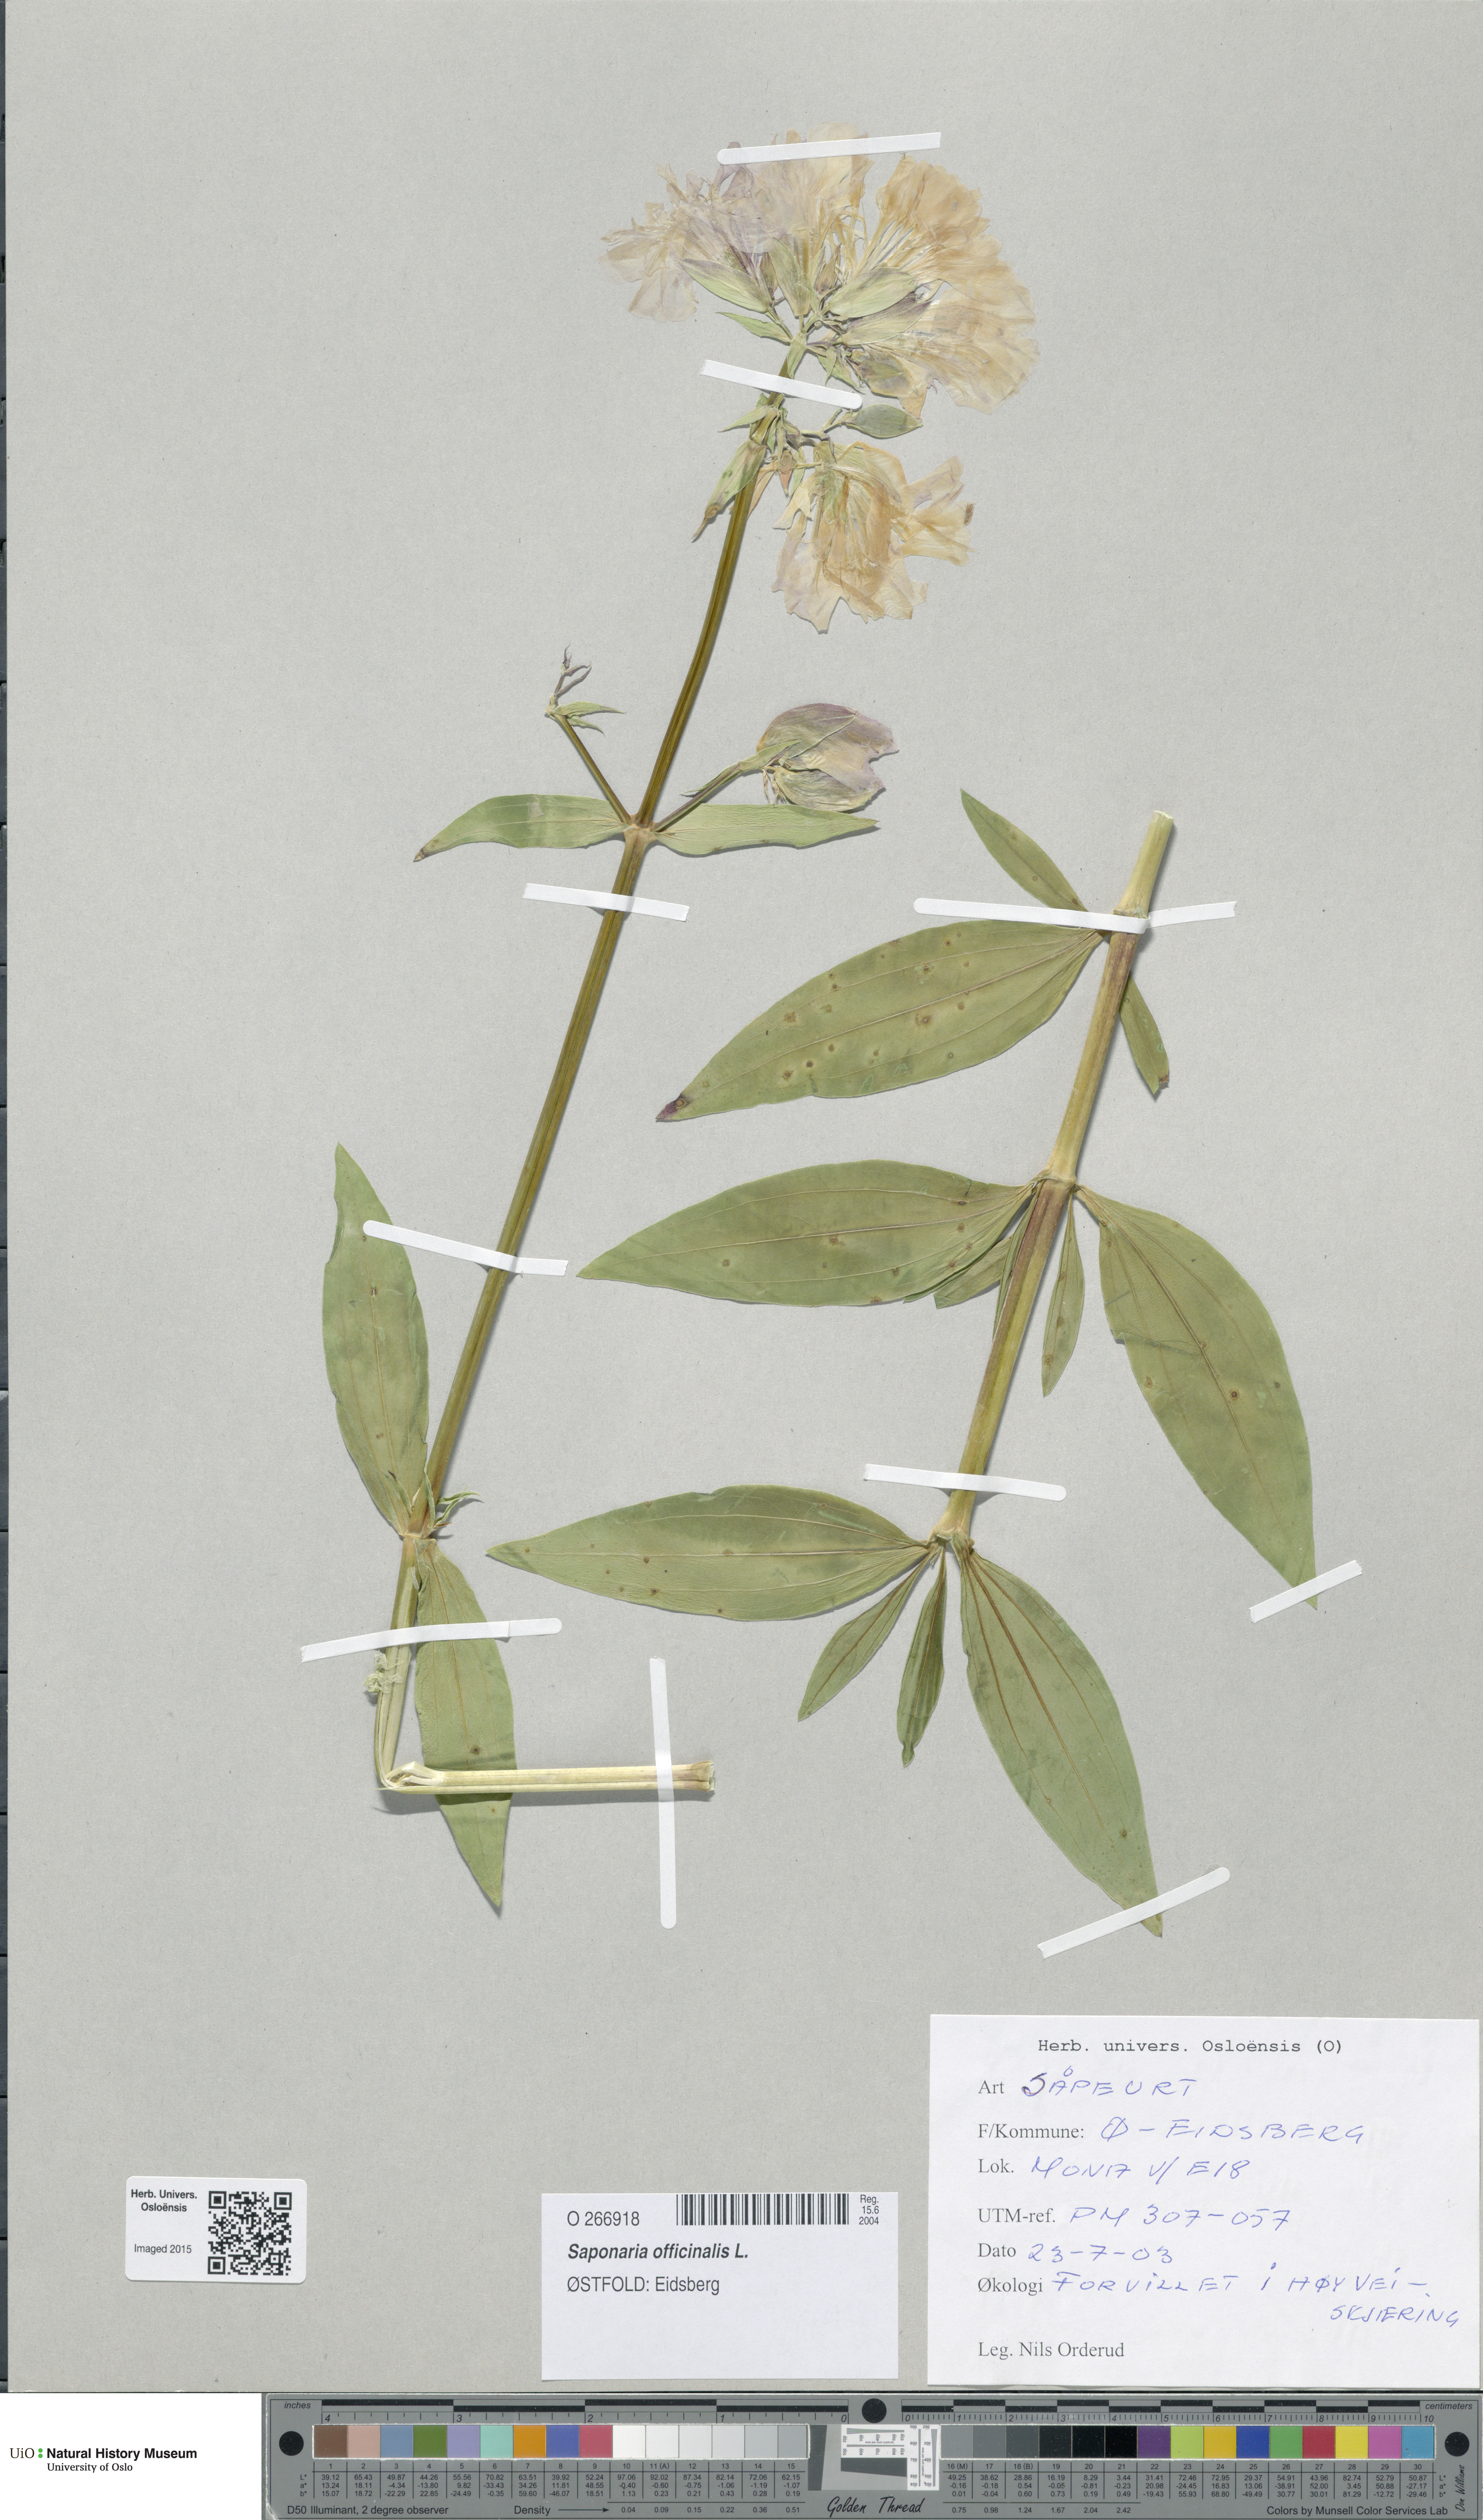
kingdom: Plantae
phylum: Tracheophyta
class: Magnoliopsida
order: Caryophyllales
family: Caryophyllaceae
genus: Saponaria
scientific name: Saponaria officinalis
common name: Soapwort
